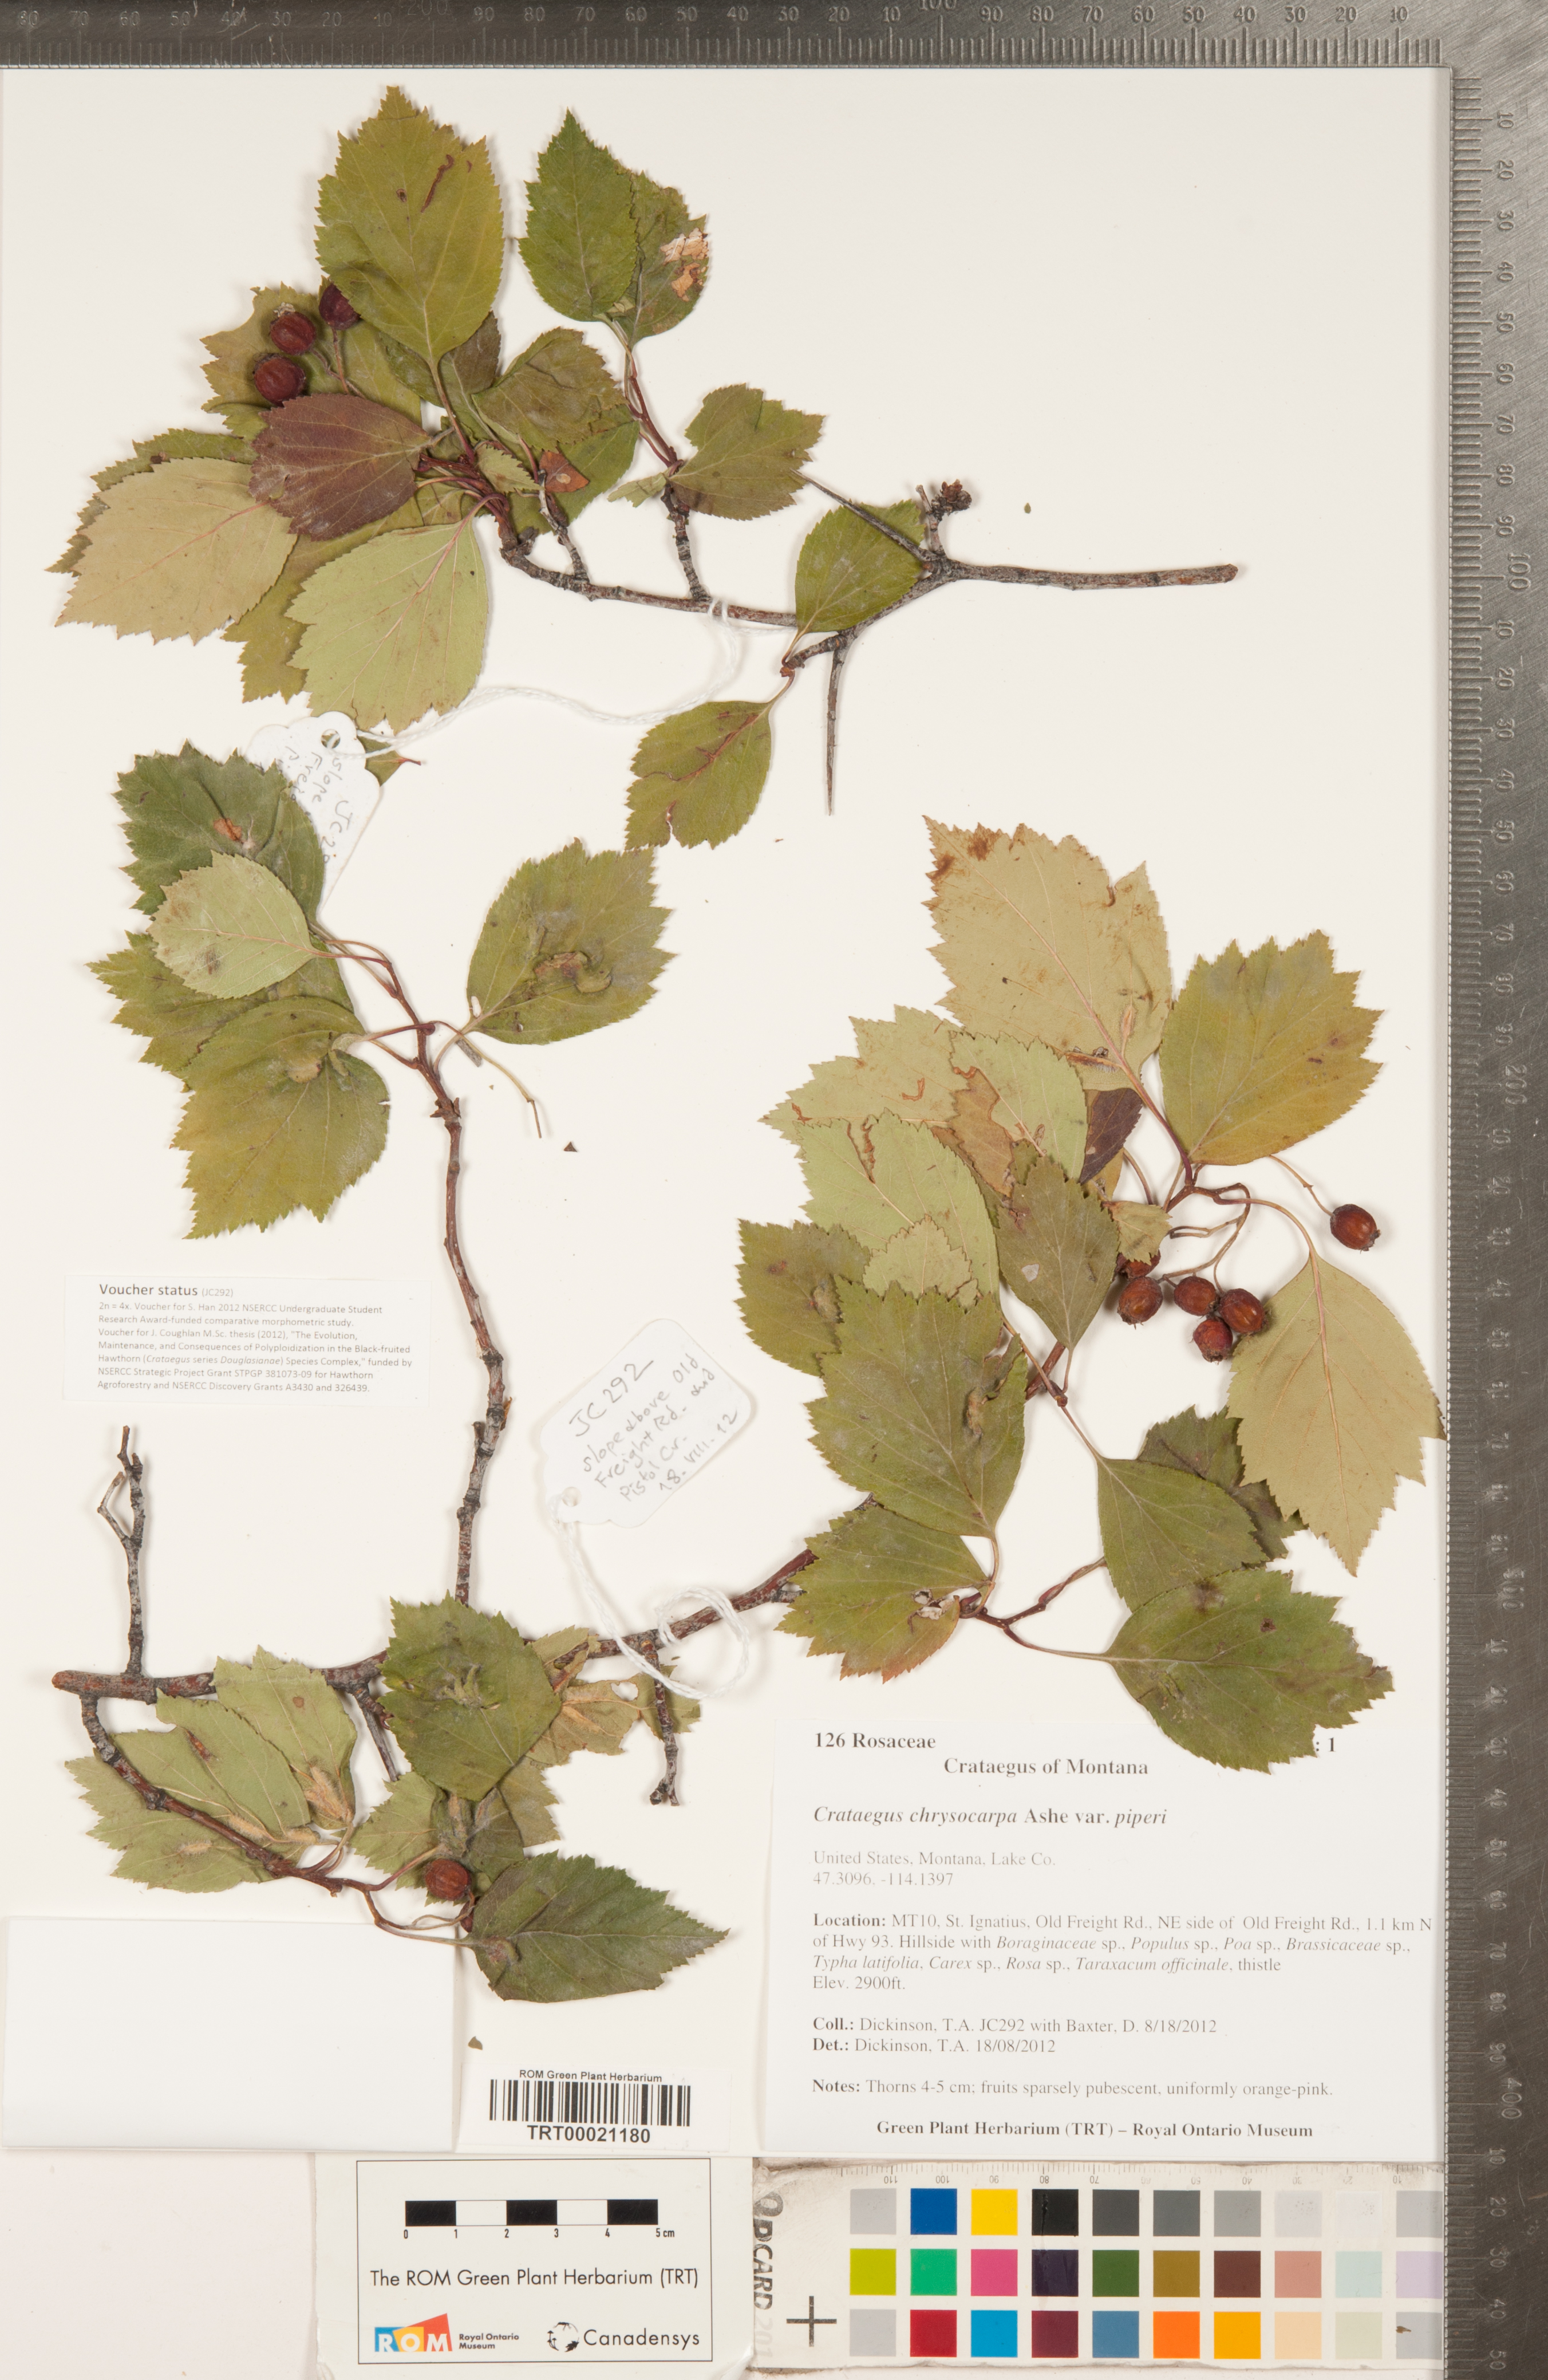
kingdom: Plantae
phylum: Tracheophyta
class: Magnoliopsida
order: Rosales
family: Rosaceae
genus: Crataegus
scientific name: Crataegus piperi
